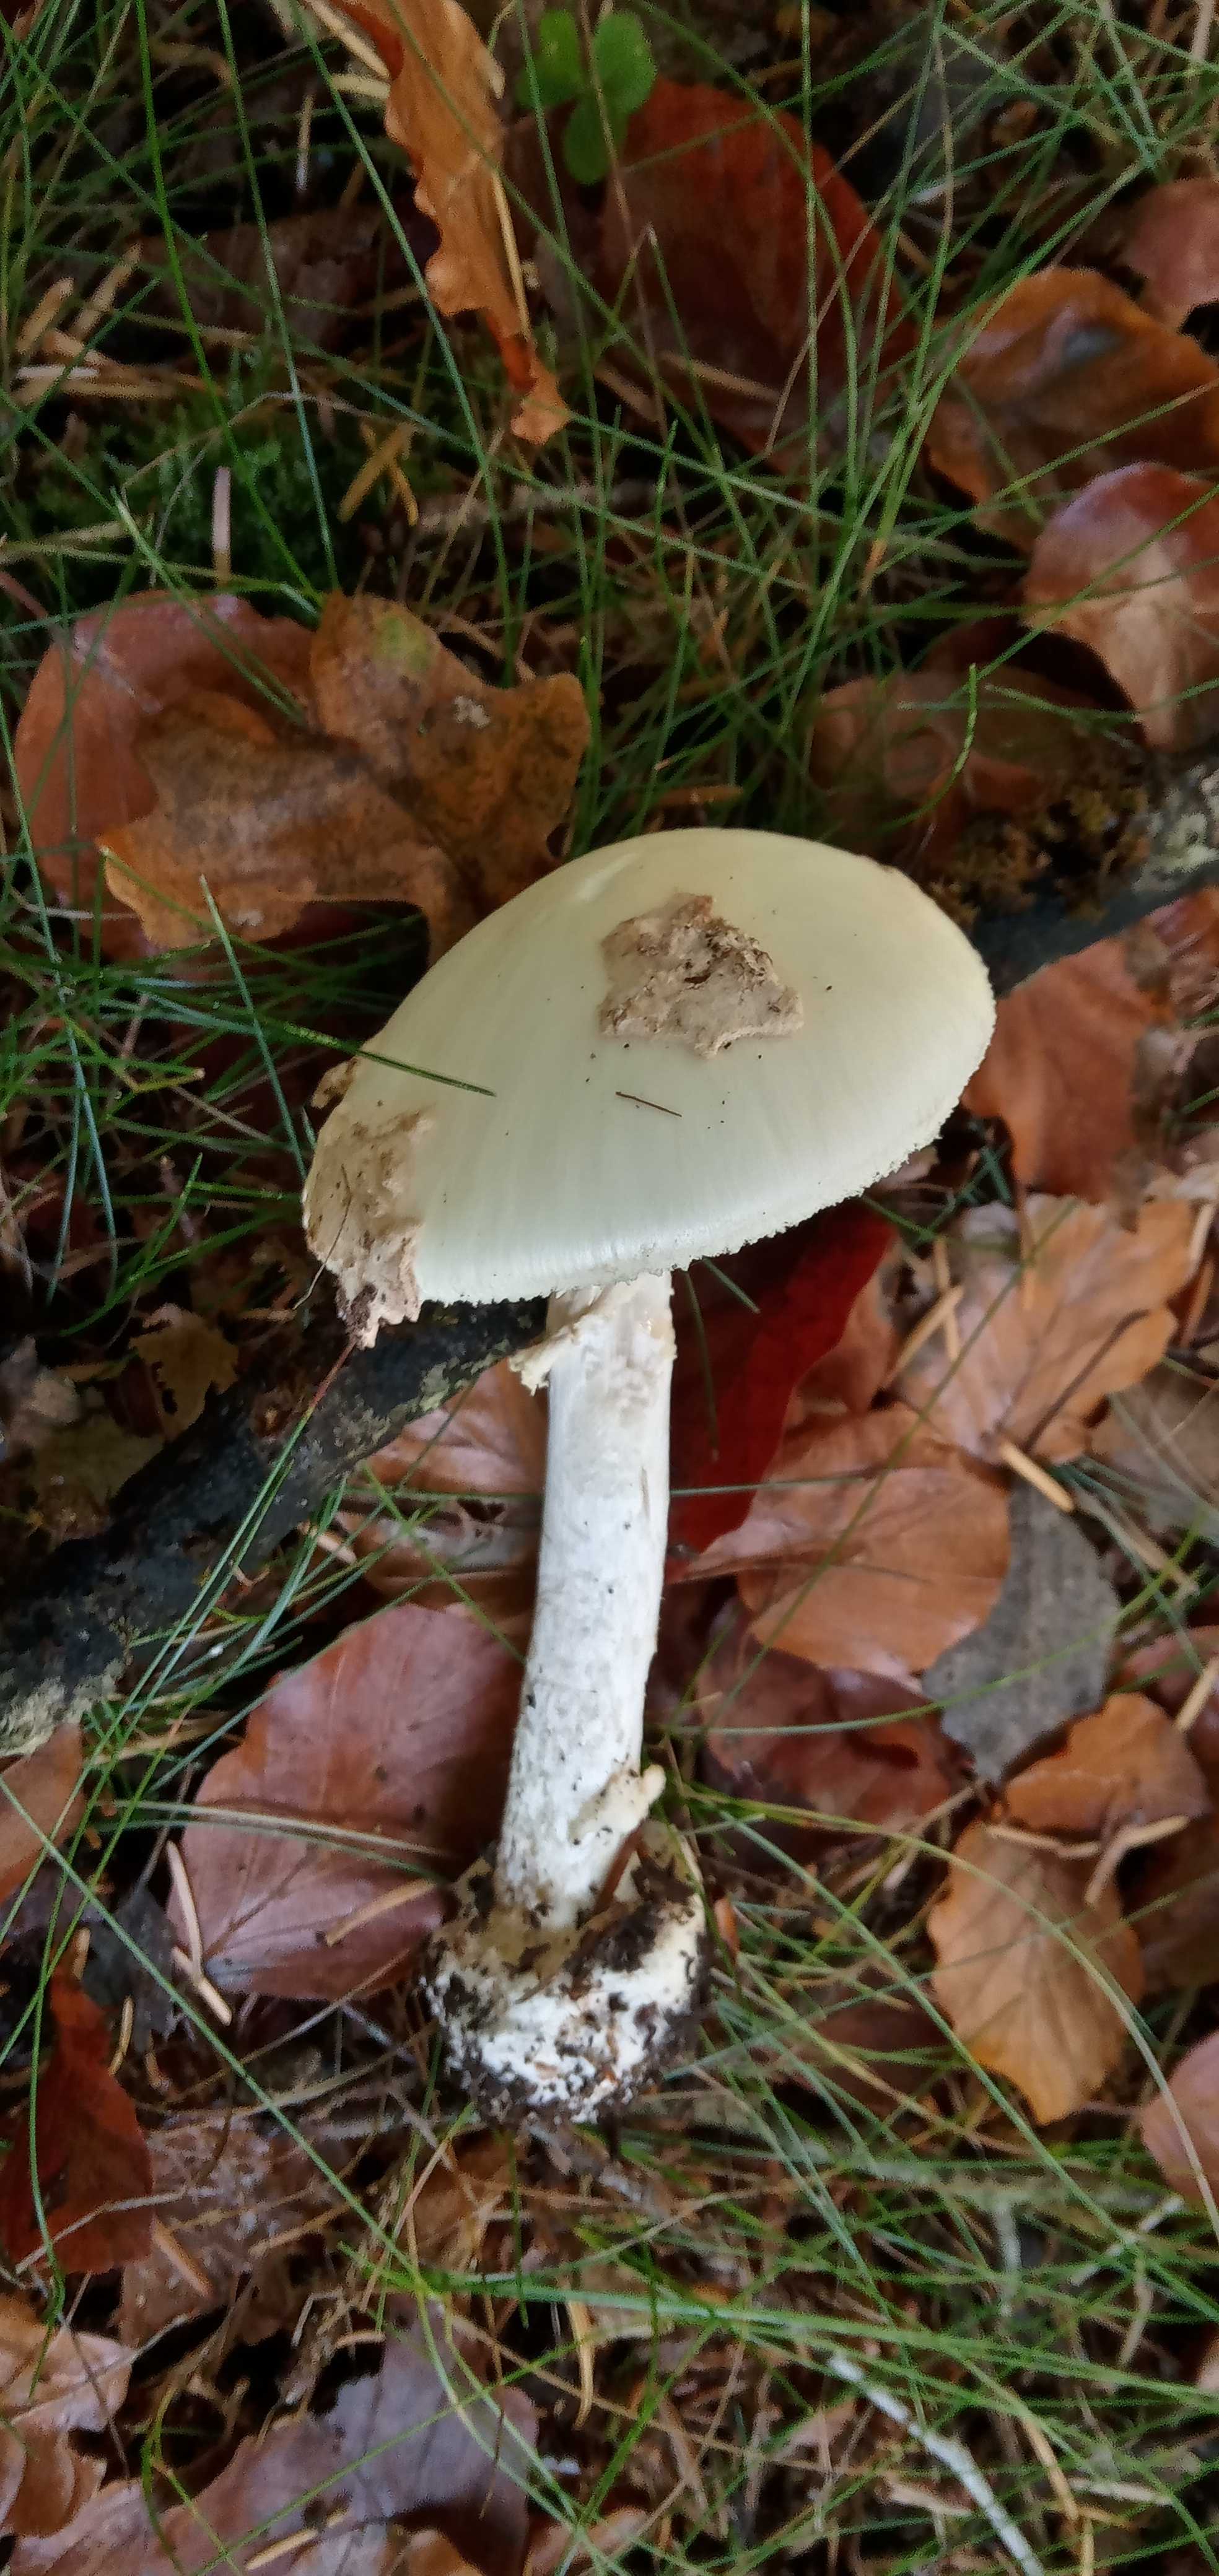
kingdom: Fungi
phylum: Basidiomycota
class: Agaricomycetes
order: Agaricales
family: Amanitaceae
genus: Amanita
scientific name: Amanita citrina
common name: kugleknoldet fluesvamp
